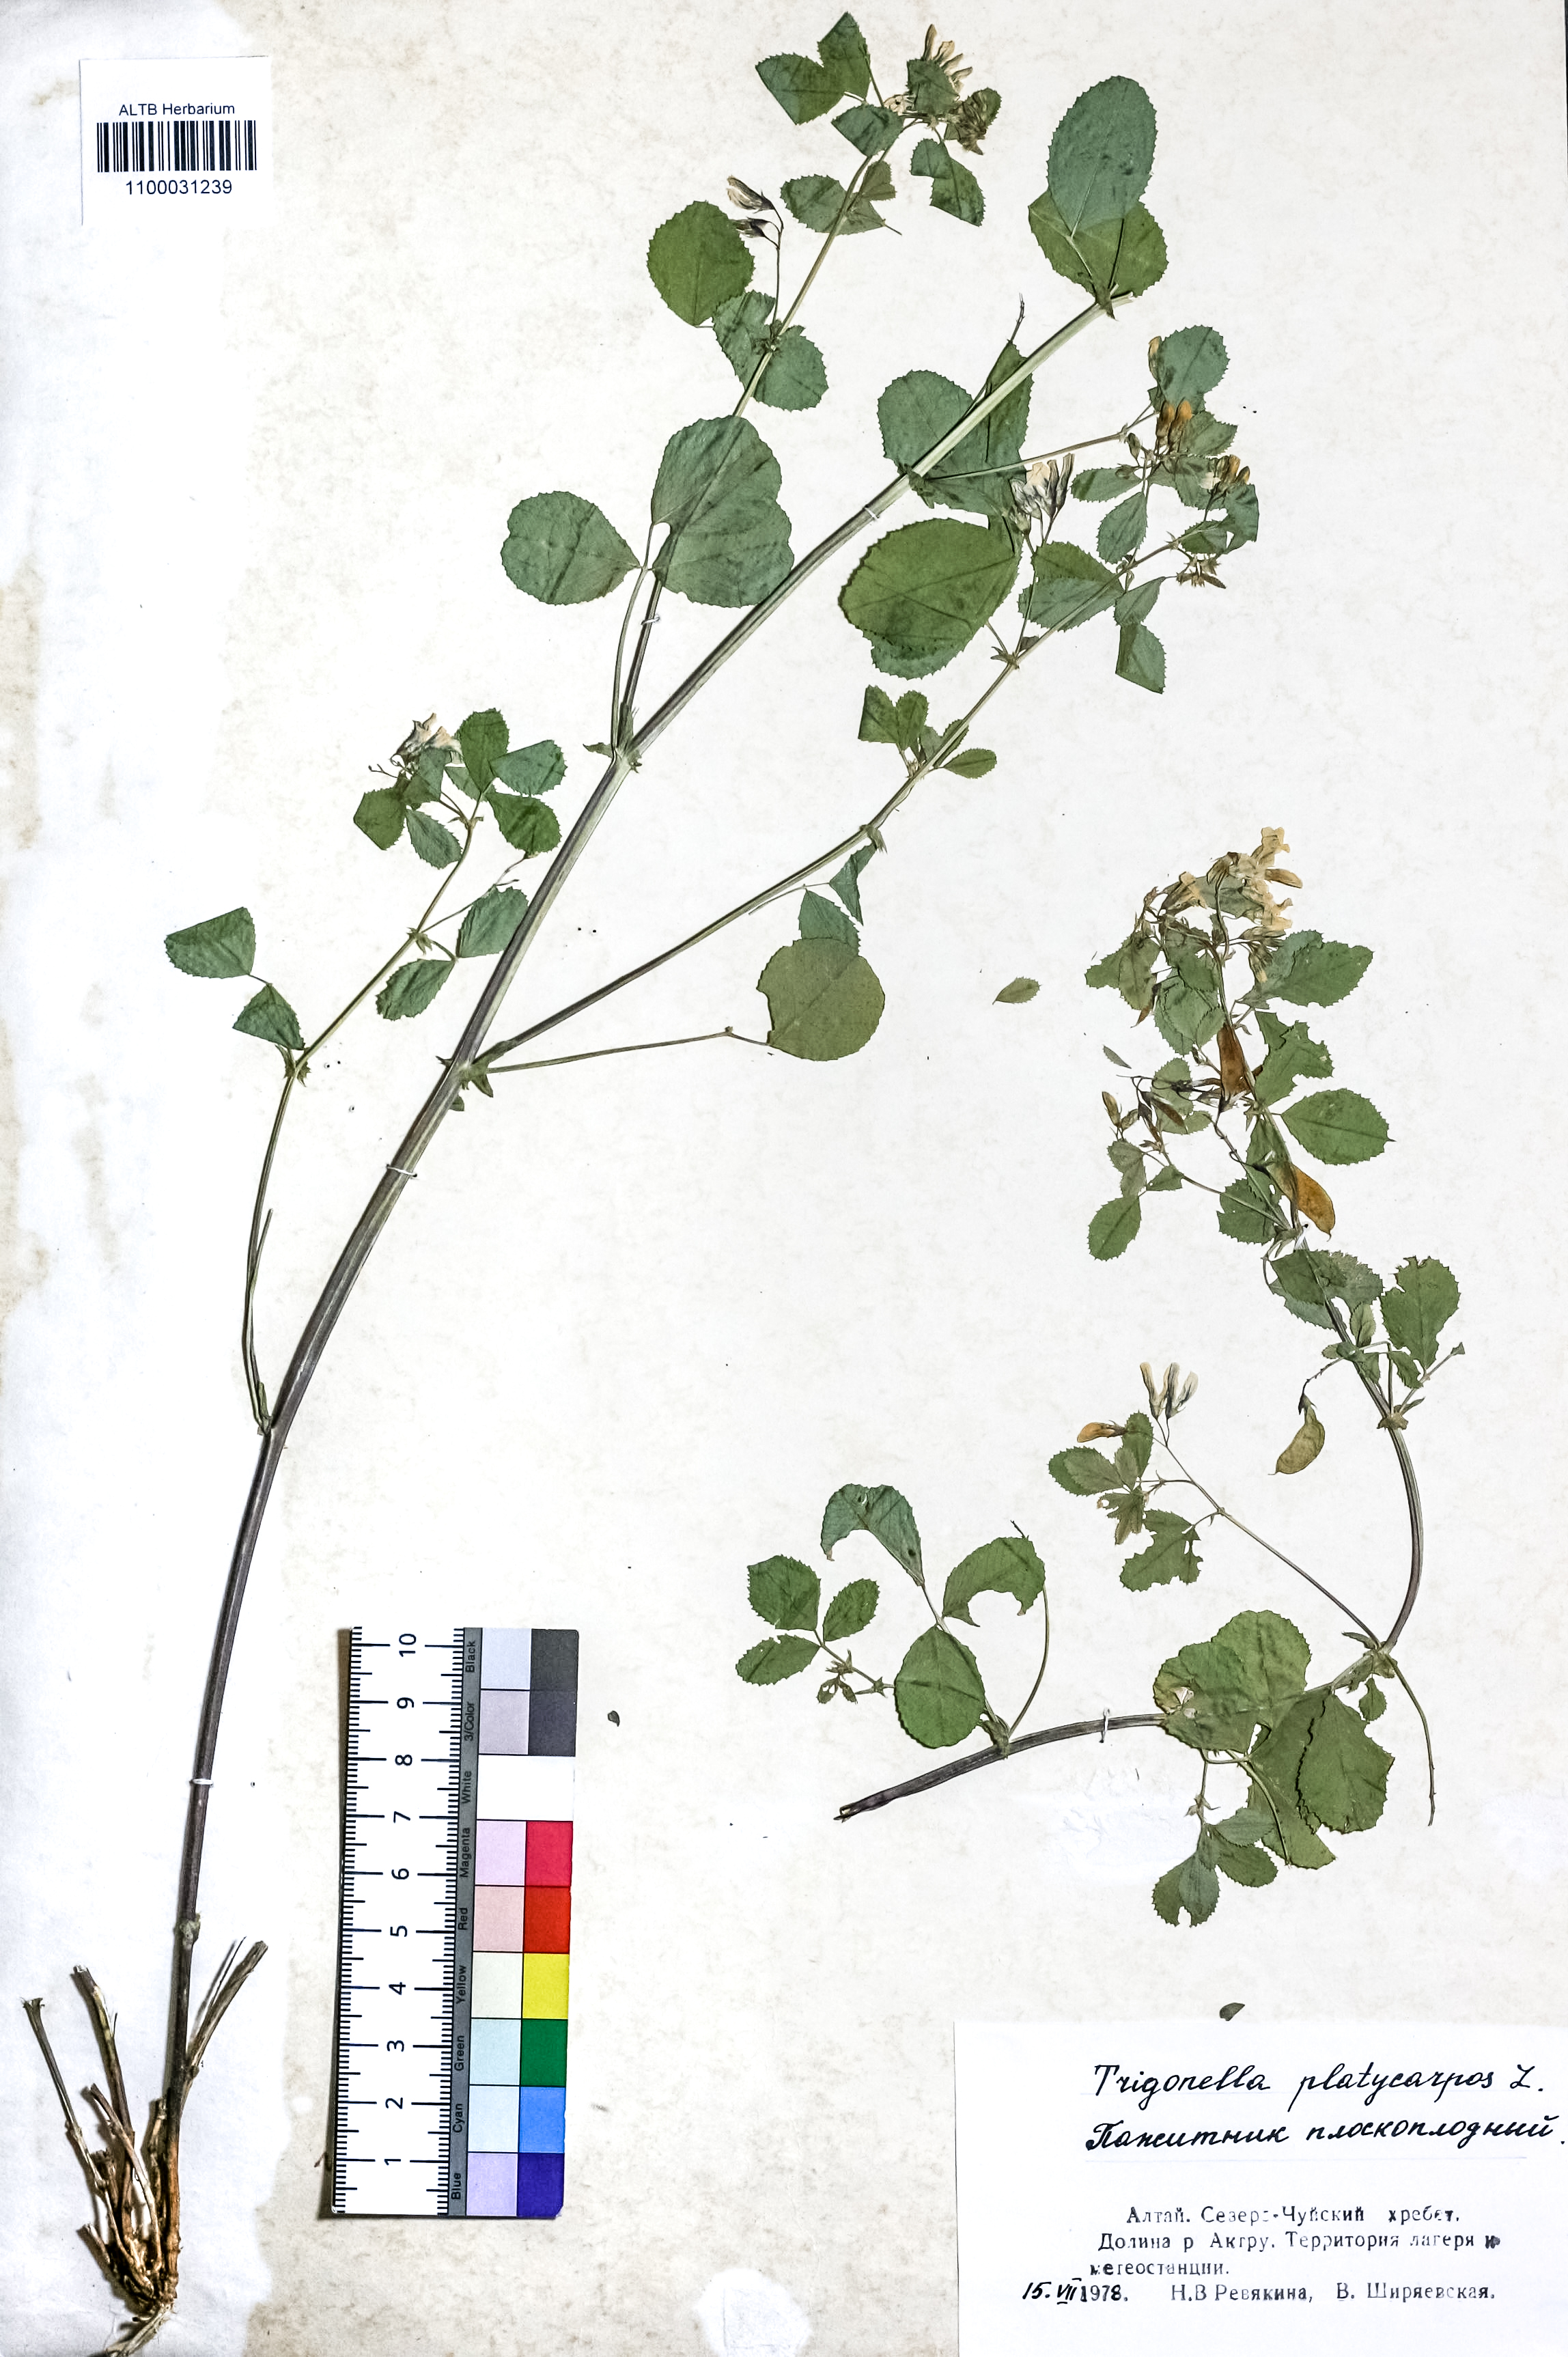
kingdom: Plantae
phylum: Tracheophyta
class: Magnoliopsida
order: Fabales
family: Fabaceae
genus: Medicago
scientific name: Medicago platycarpos
